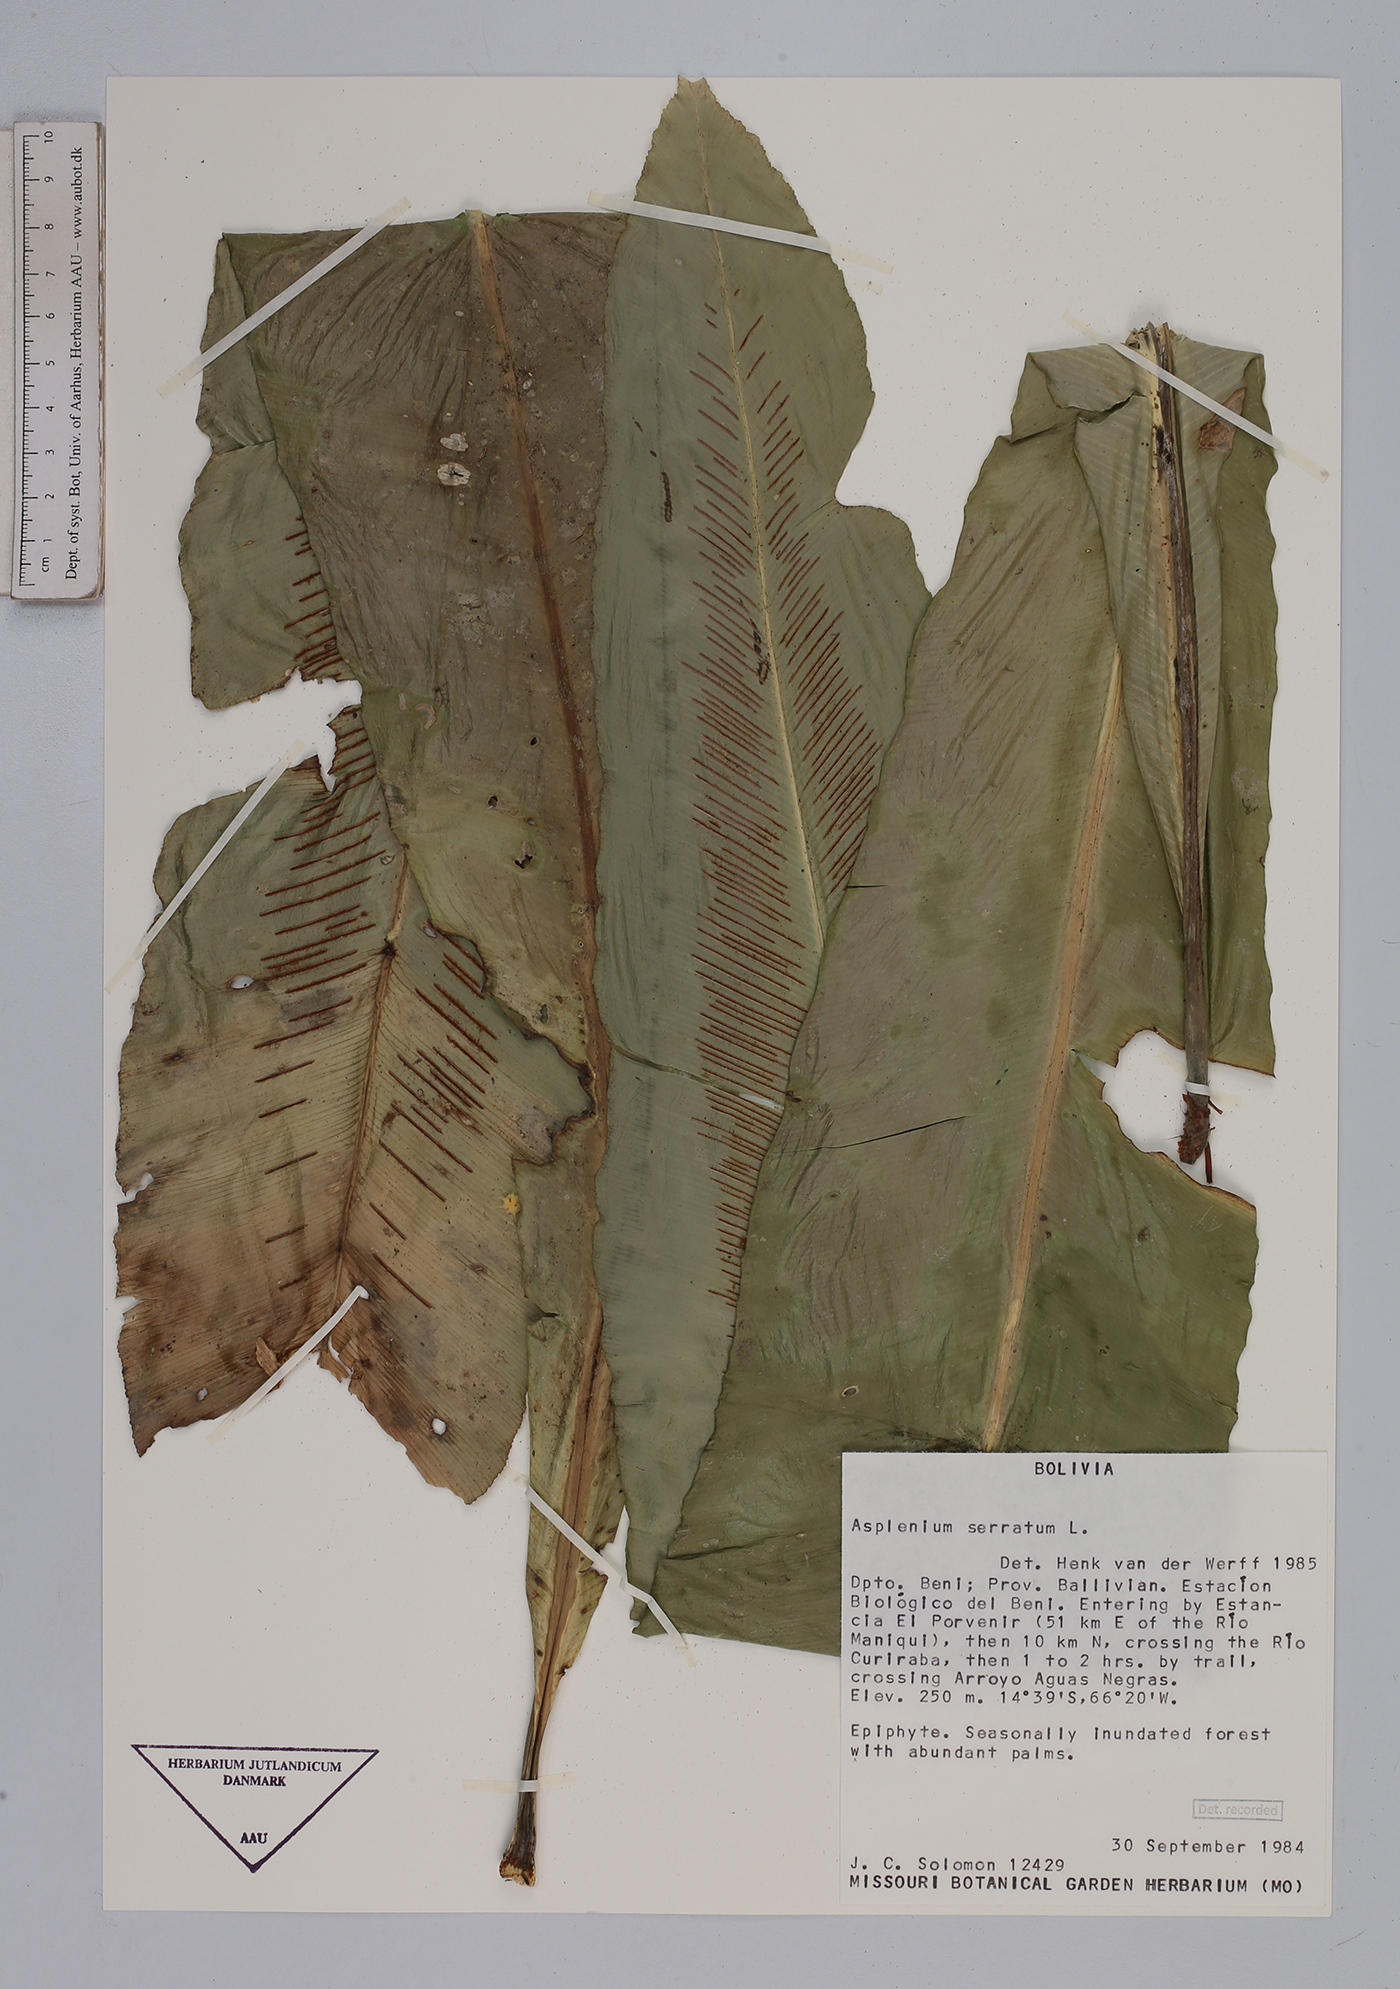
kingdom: Plantae
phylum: Tracheophyta
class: Polypodiopsida
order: Polypodiales
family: Aspleniaceae
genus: Asplenium
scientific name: Asplenium serratum
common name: Wild birdnest fern
